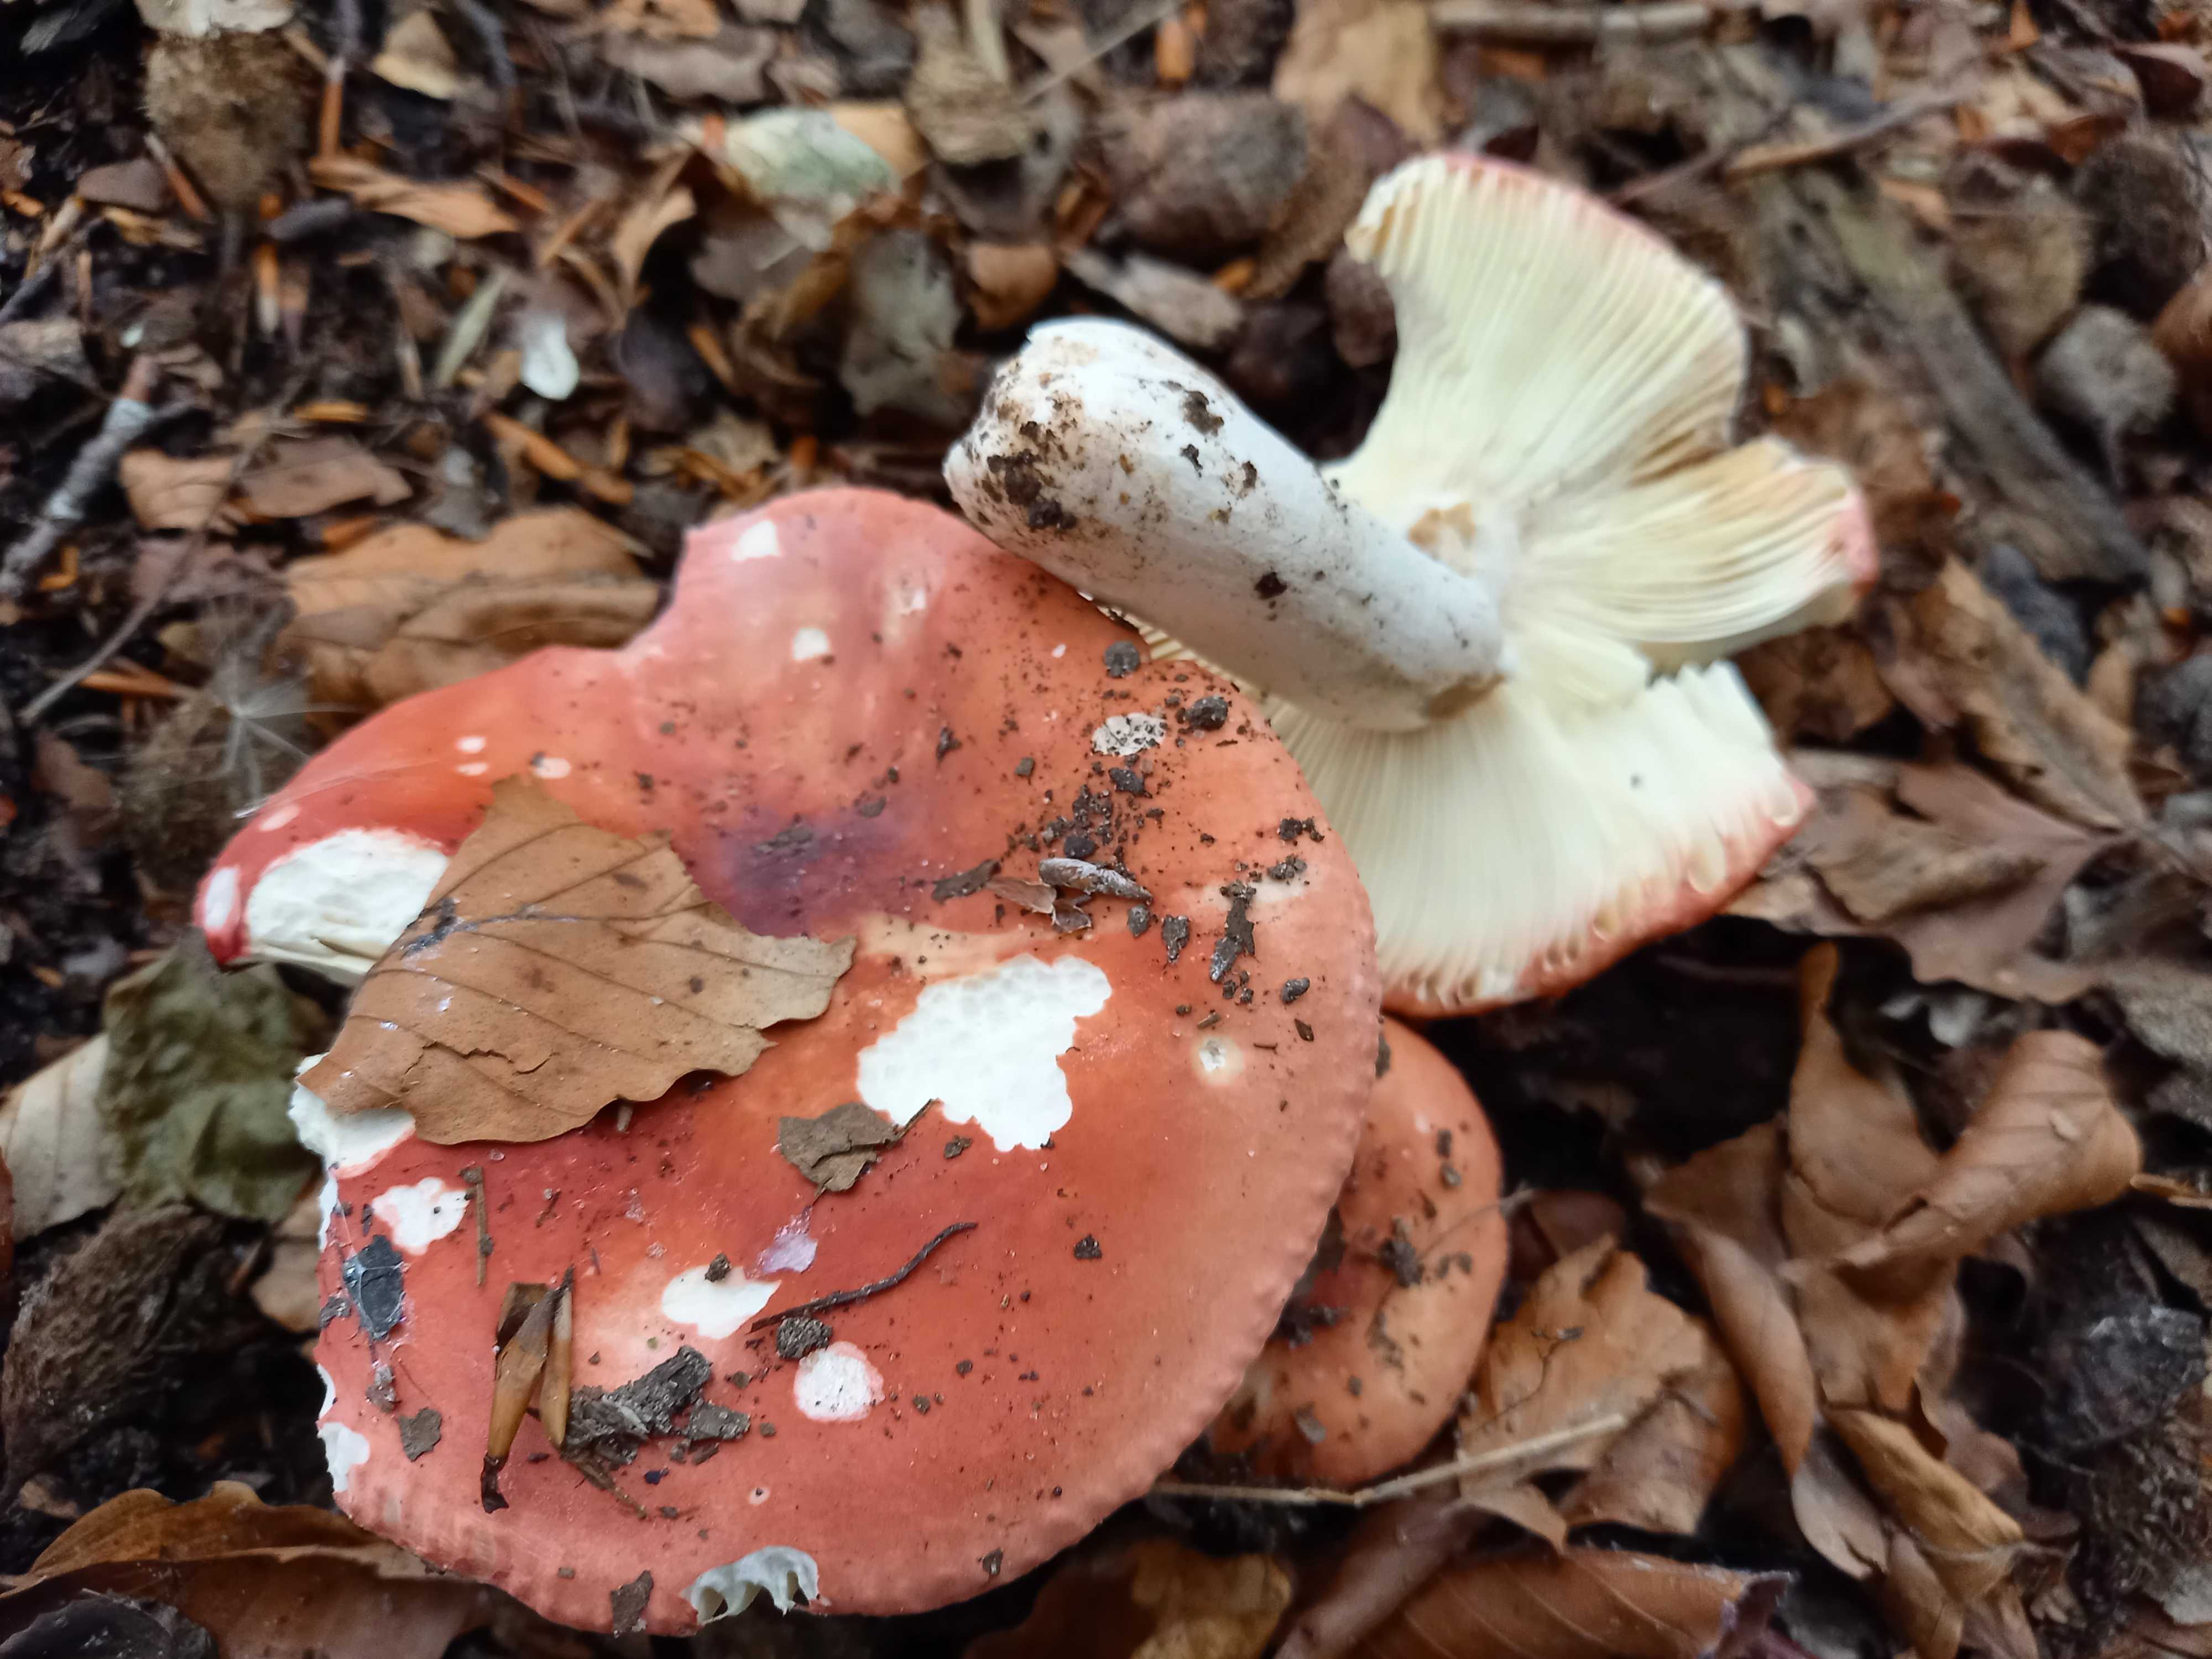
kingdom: Fungi
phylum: Basidiomycota
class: Agaricomycetes
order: Russulales
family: Russulaceae
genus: Russula
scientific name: Russula aurora
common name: rosa skørhat
